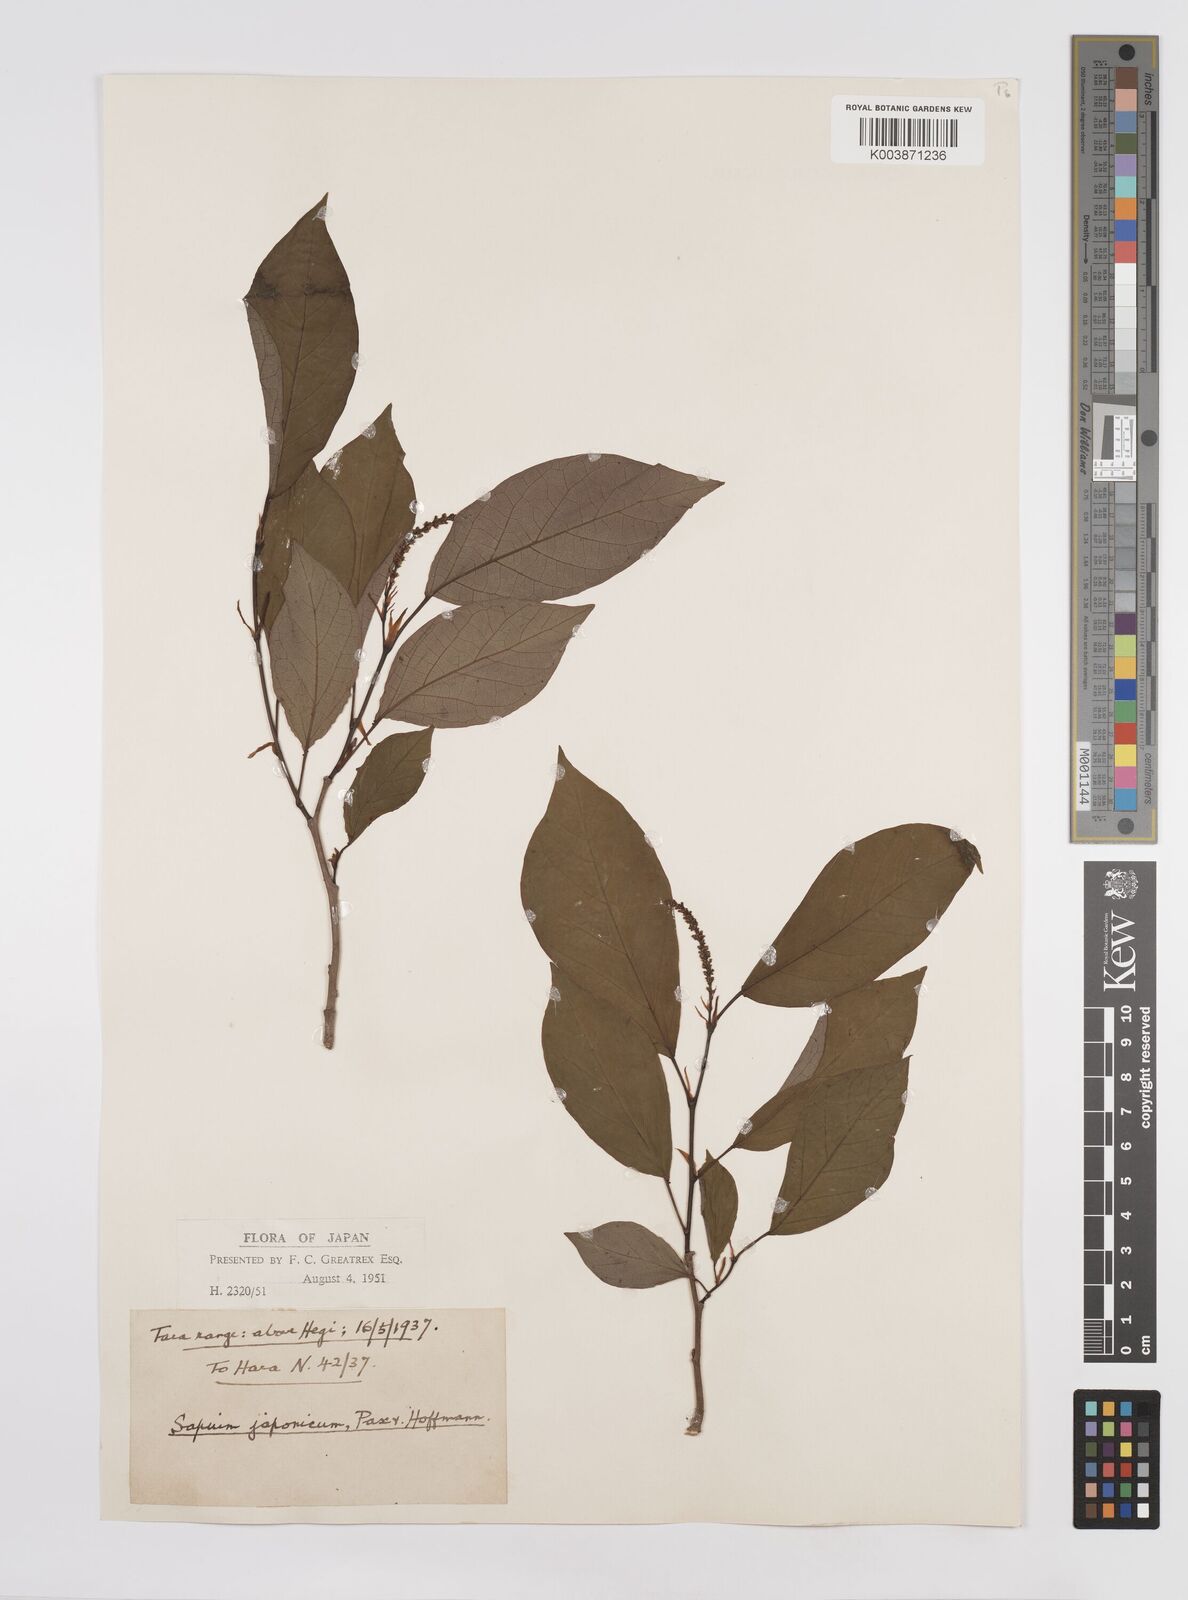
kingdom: Plantae
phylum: Tracheophyta
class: Magnoliopsida
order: Malpighiales
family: Euphorbiaceae
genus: Neoshirakia
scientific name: Neoshirakia japonica
